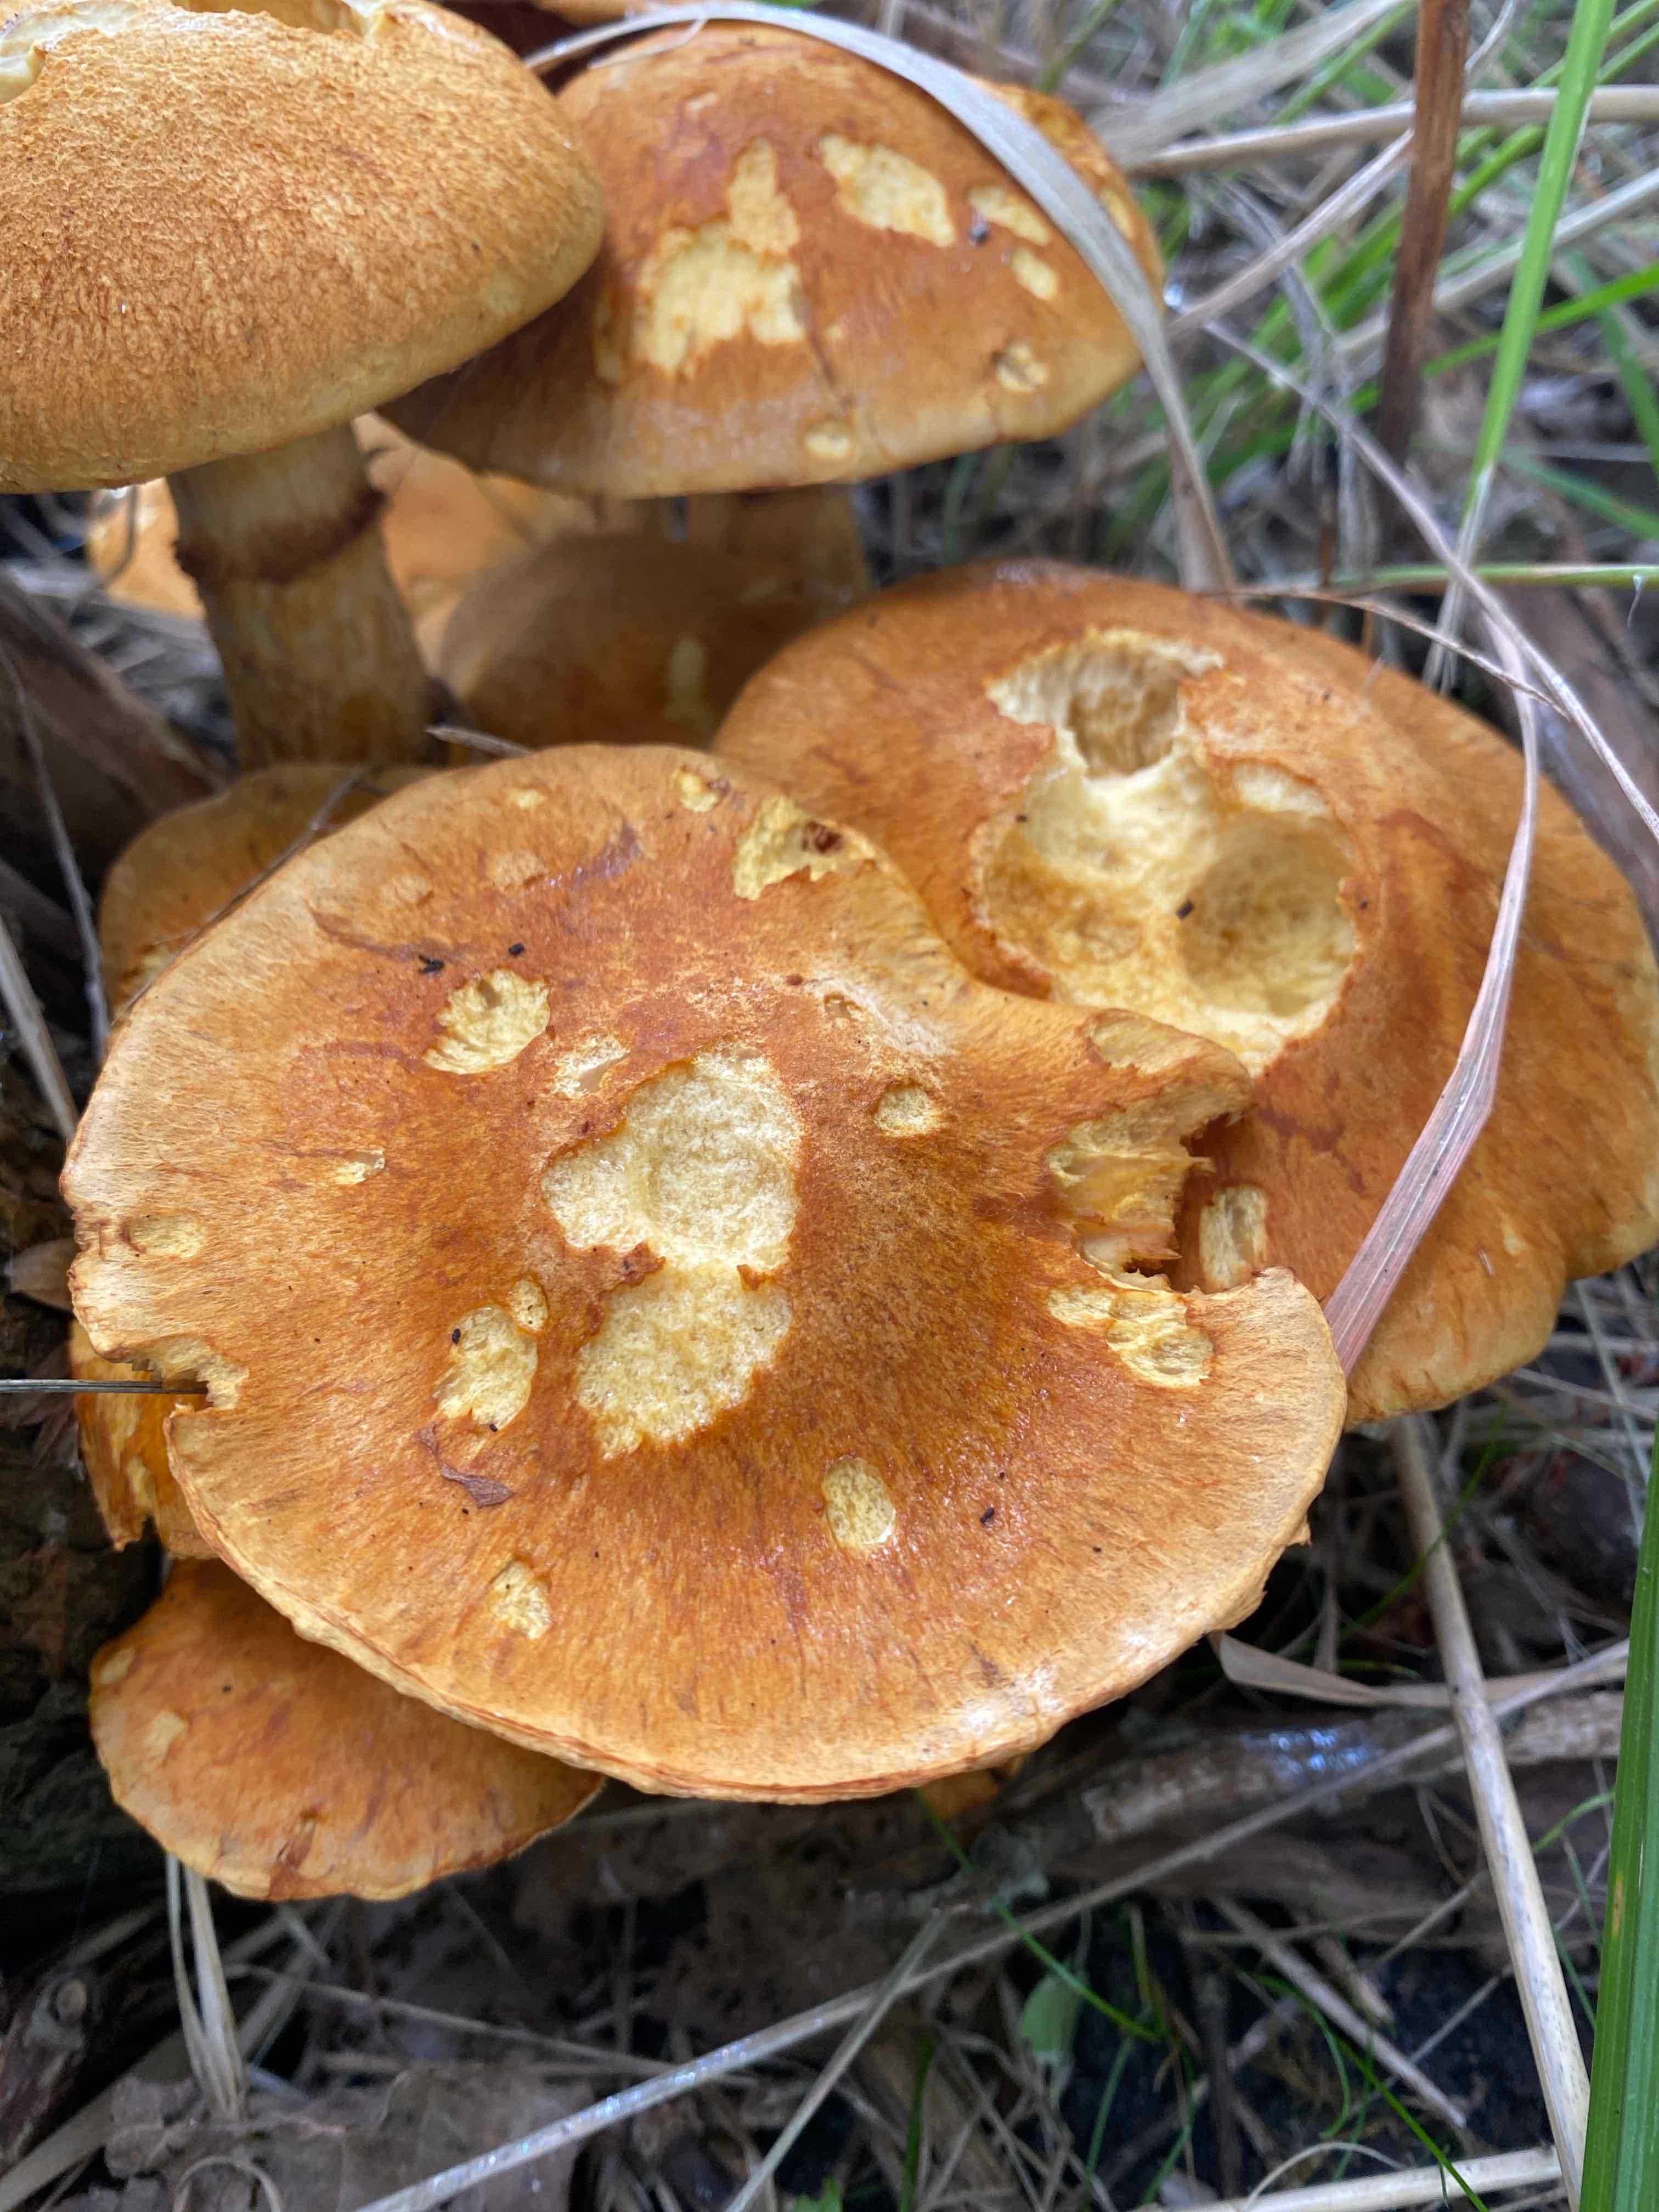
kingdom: Fungi
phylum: Basidiomycota
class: Agaricomycetes
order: Agaricales
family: Hymenogastraceae
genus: Gymnopilus
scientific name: Gymnopilus spectabilis
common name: fibret flammehat
